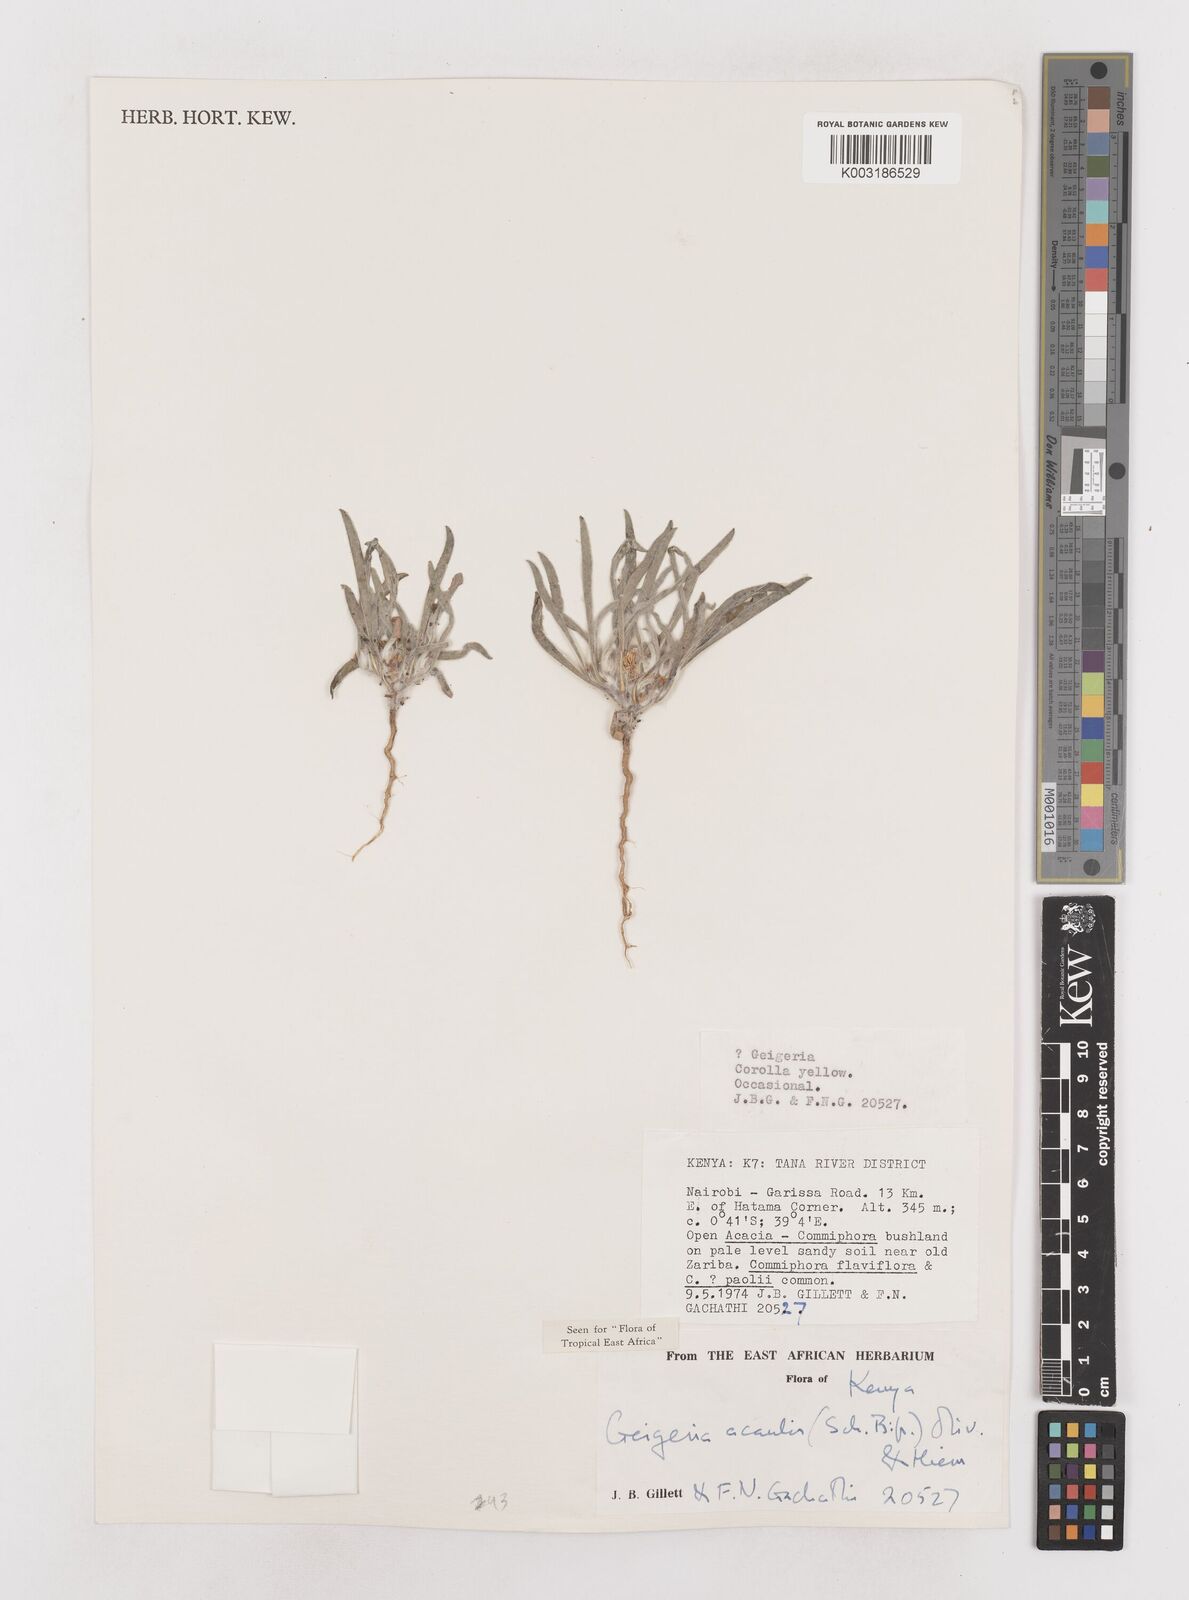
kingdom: Plantae
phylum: Tracheophyta
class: Magnoliopsida
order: Asterales
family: Asteraceae
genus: Geigeria
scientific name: Geigeria acaulis
